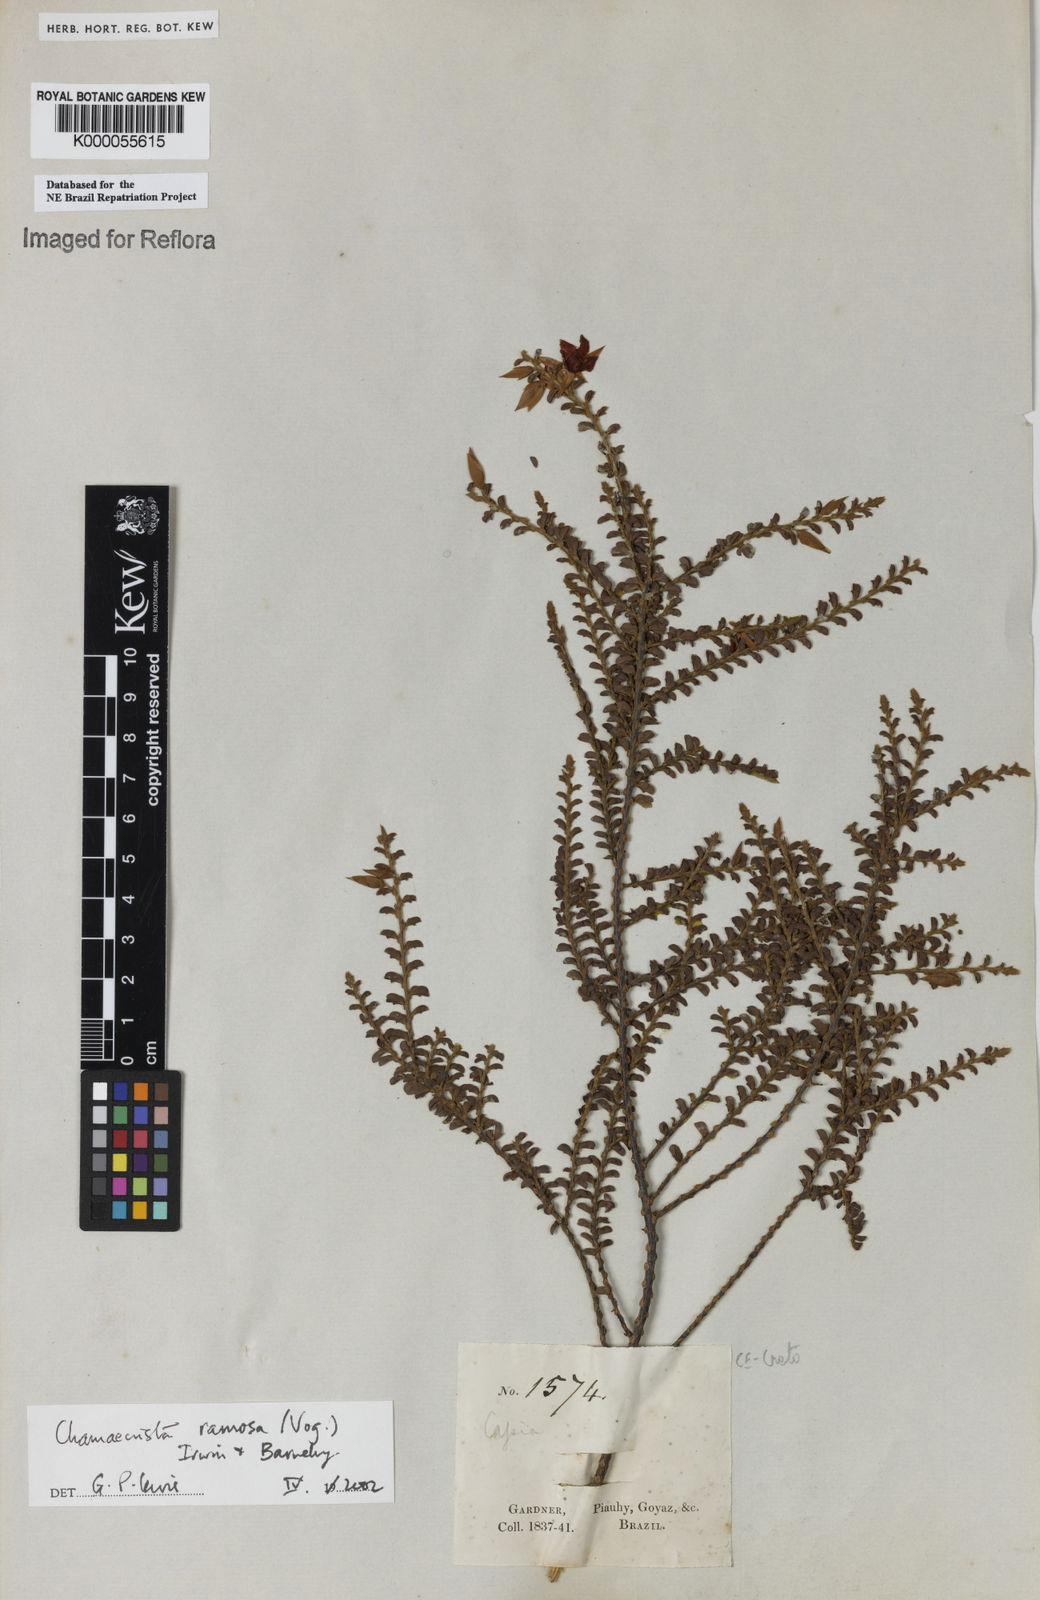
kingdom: Plantae
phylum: Tracheophyta
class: Magnoliopsida
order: Fabales
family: Fabaceae
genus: Chamaecrista
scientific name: Chamaecrista ramosa
